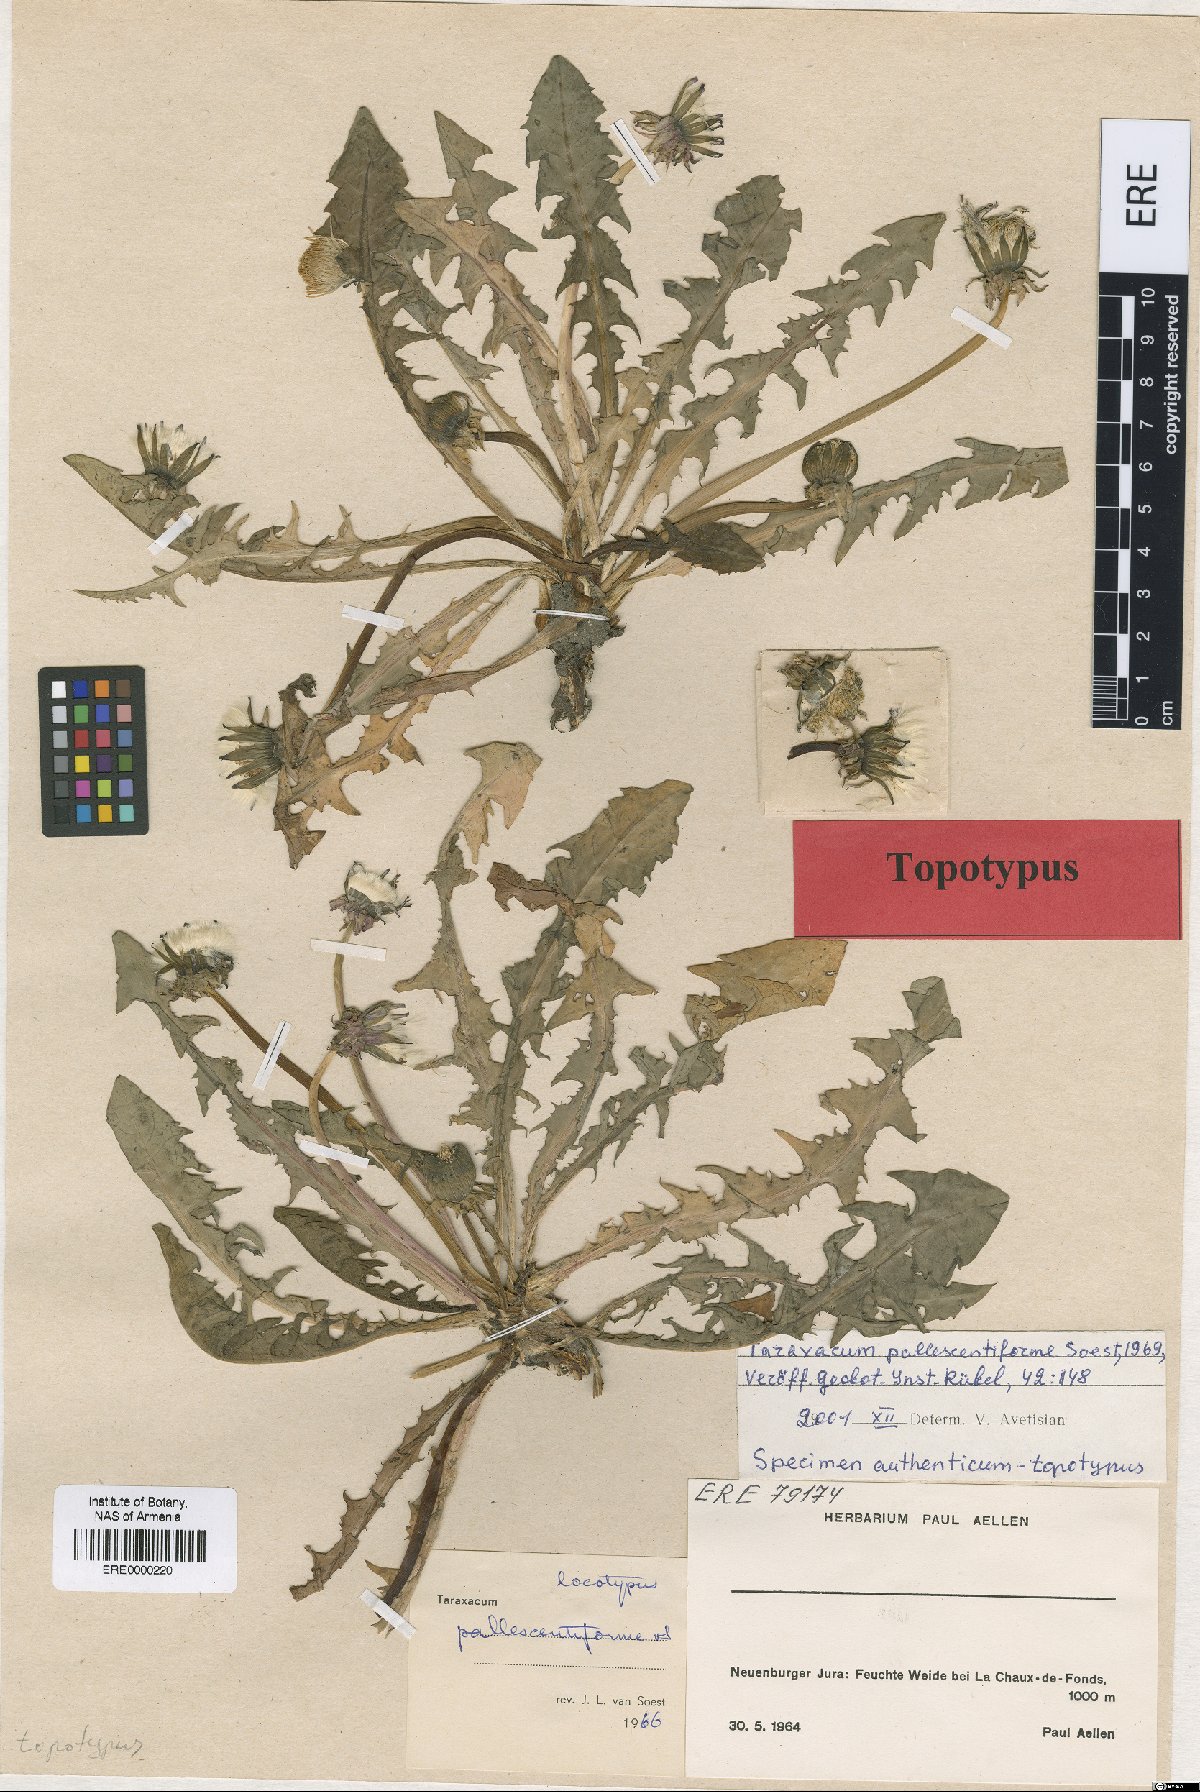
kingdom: Plantae
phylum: Tracheophyta
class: Magnoliopsida
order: Asterales
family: Asteraceae
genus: Taraxacum
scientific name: Taraxacum pallescentiforme
